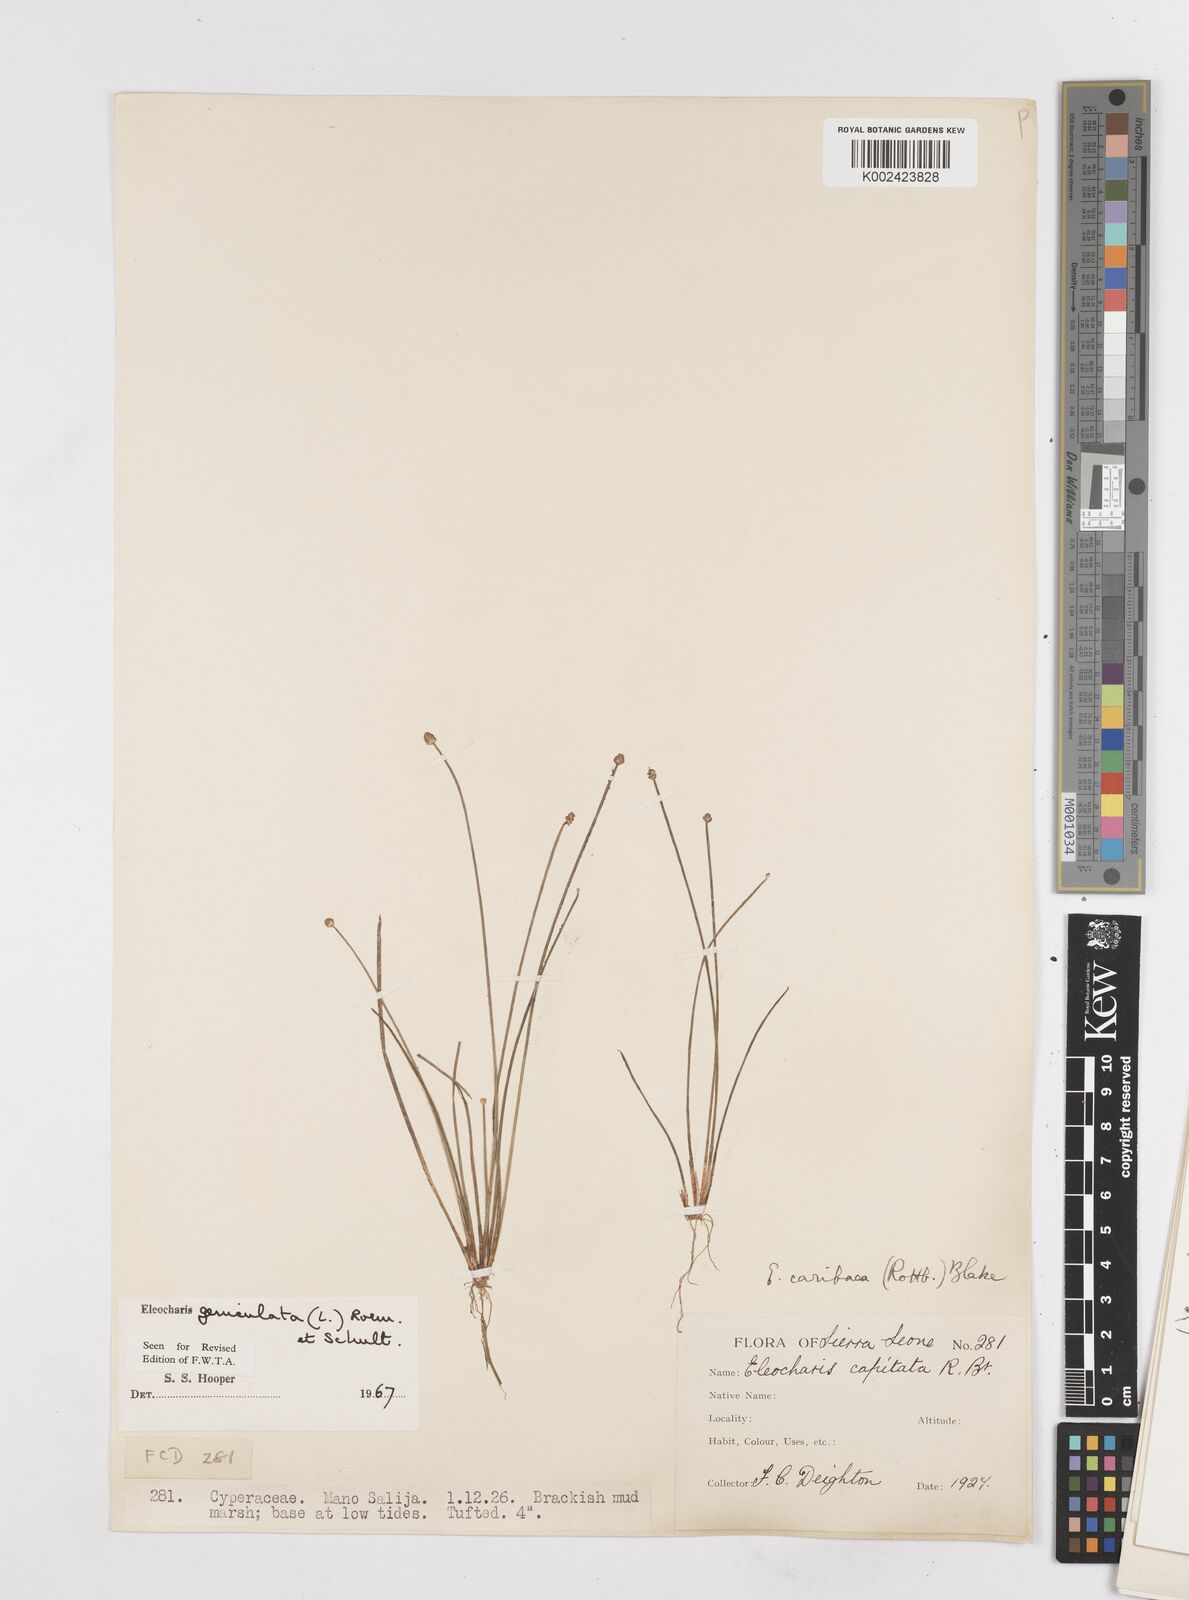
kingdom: Plantae
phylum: Tracheophyta
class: Liliopsida
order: Poales
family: Cyperaceae
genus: Eleocharis
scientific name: Eleocharis geniculata
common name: Canada spikesedge
